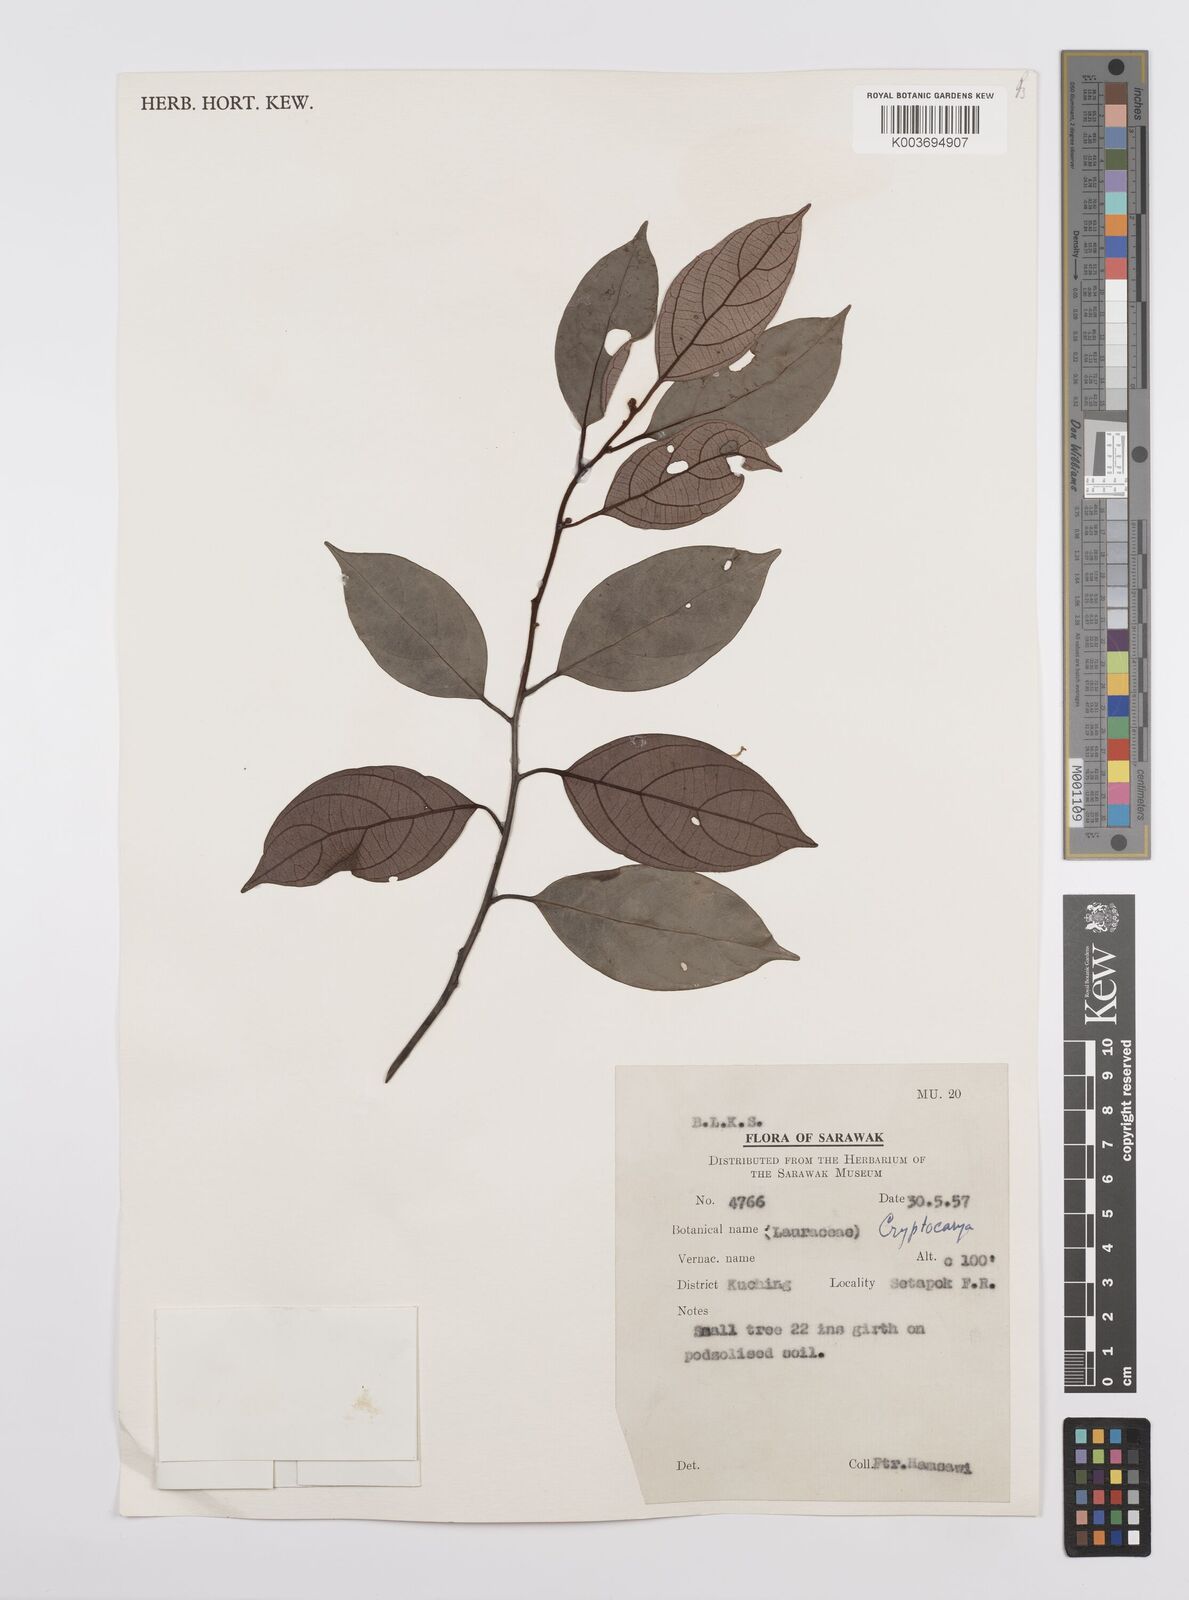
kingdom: Plantae
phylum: Tracheophyta
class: Magnoliopsida
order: Laurales
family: Lauraceae
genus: Cryptocarya
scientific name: Cryptocarya
